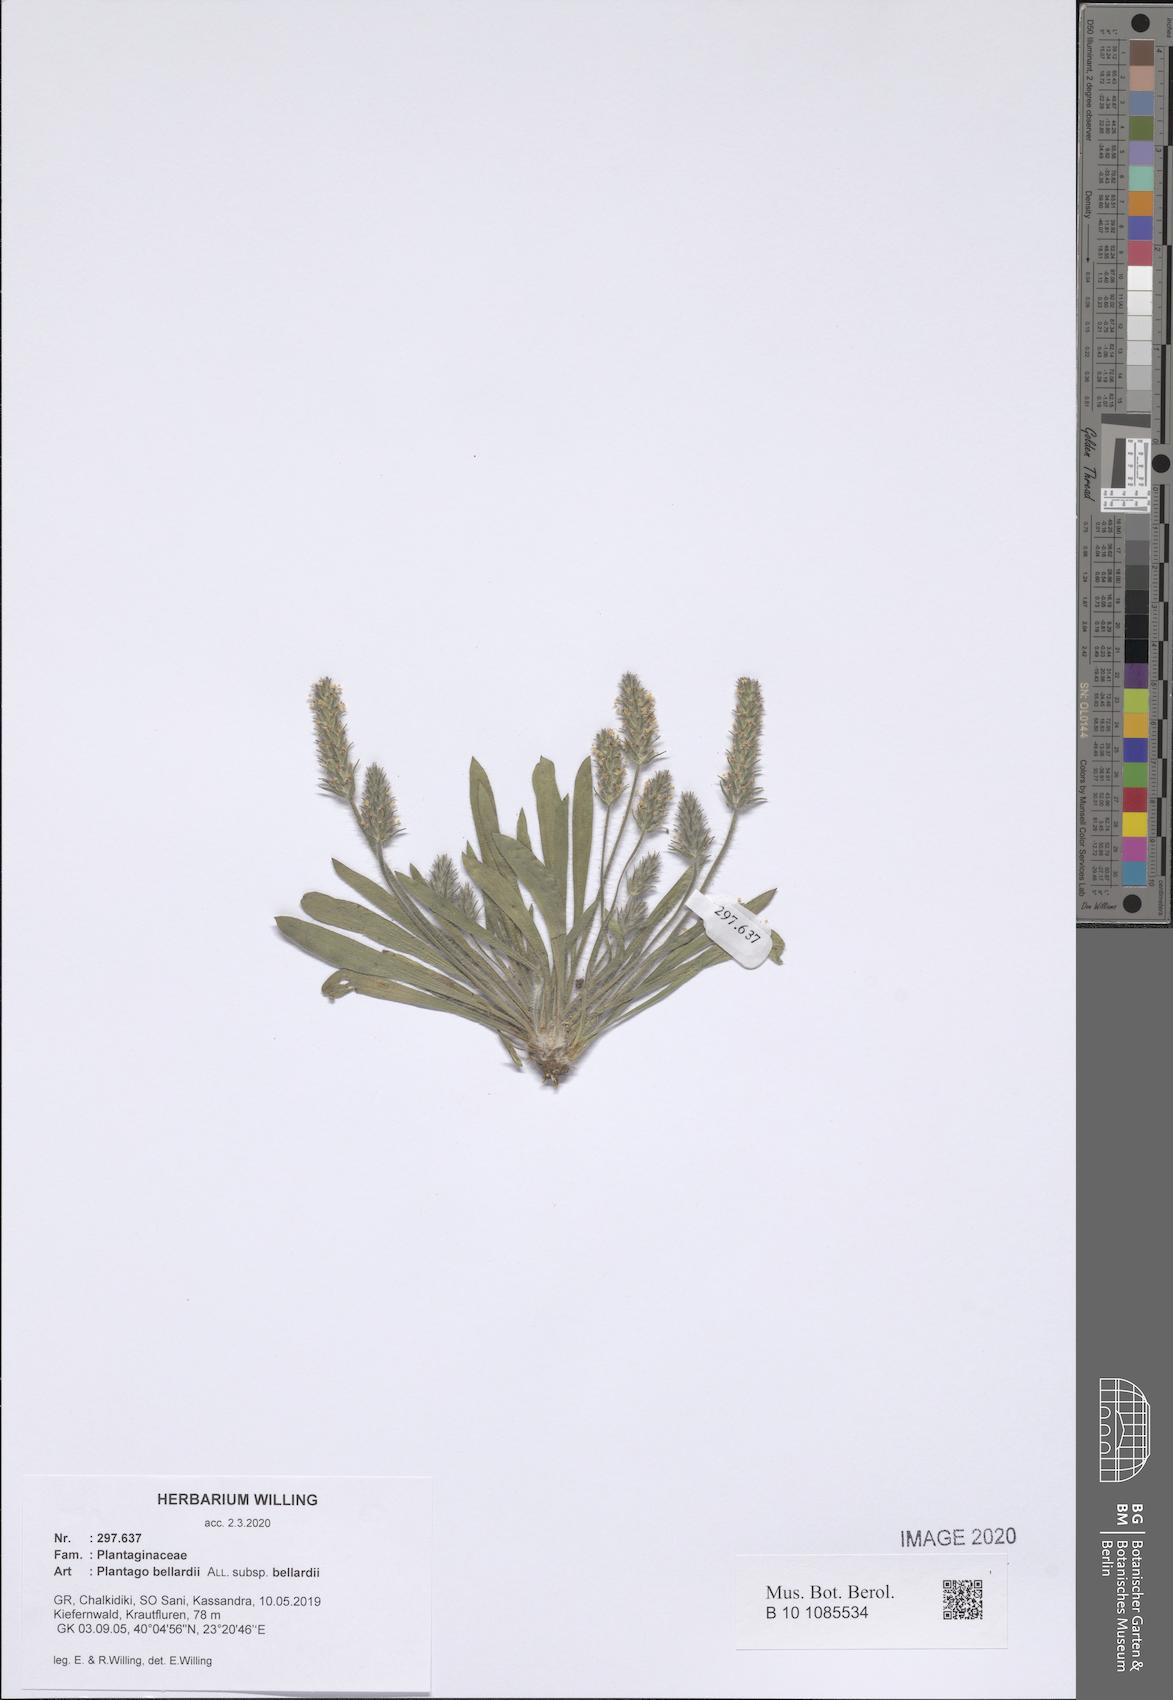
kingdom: Plantae
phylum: Tracheophyta
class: Magnoliopsida
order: Lamiales
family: Plantaginaceae
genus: Plantago
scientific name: Plantago bellardii
